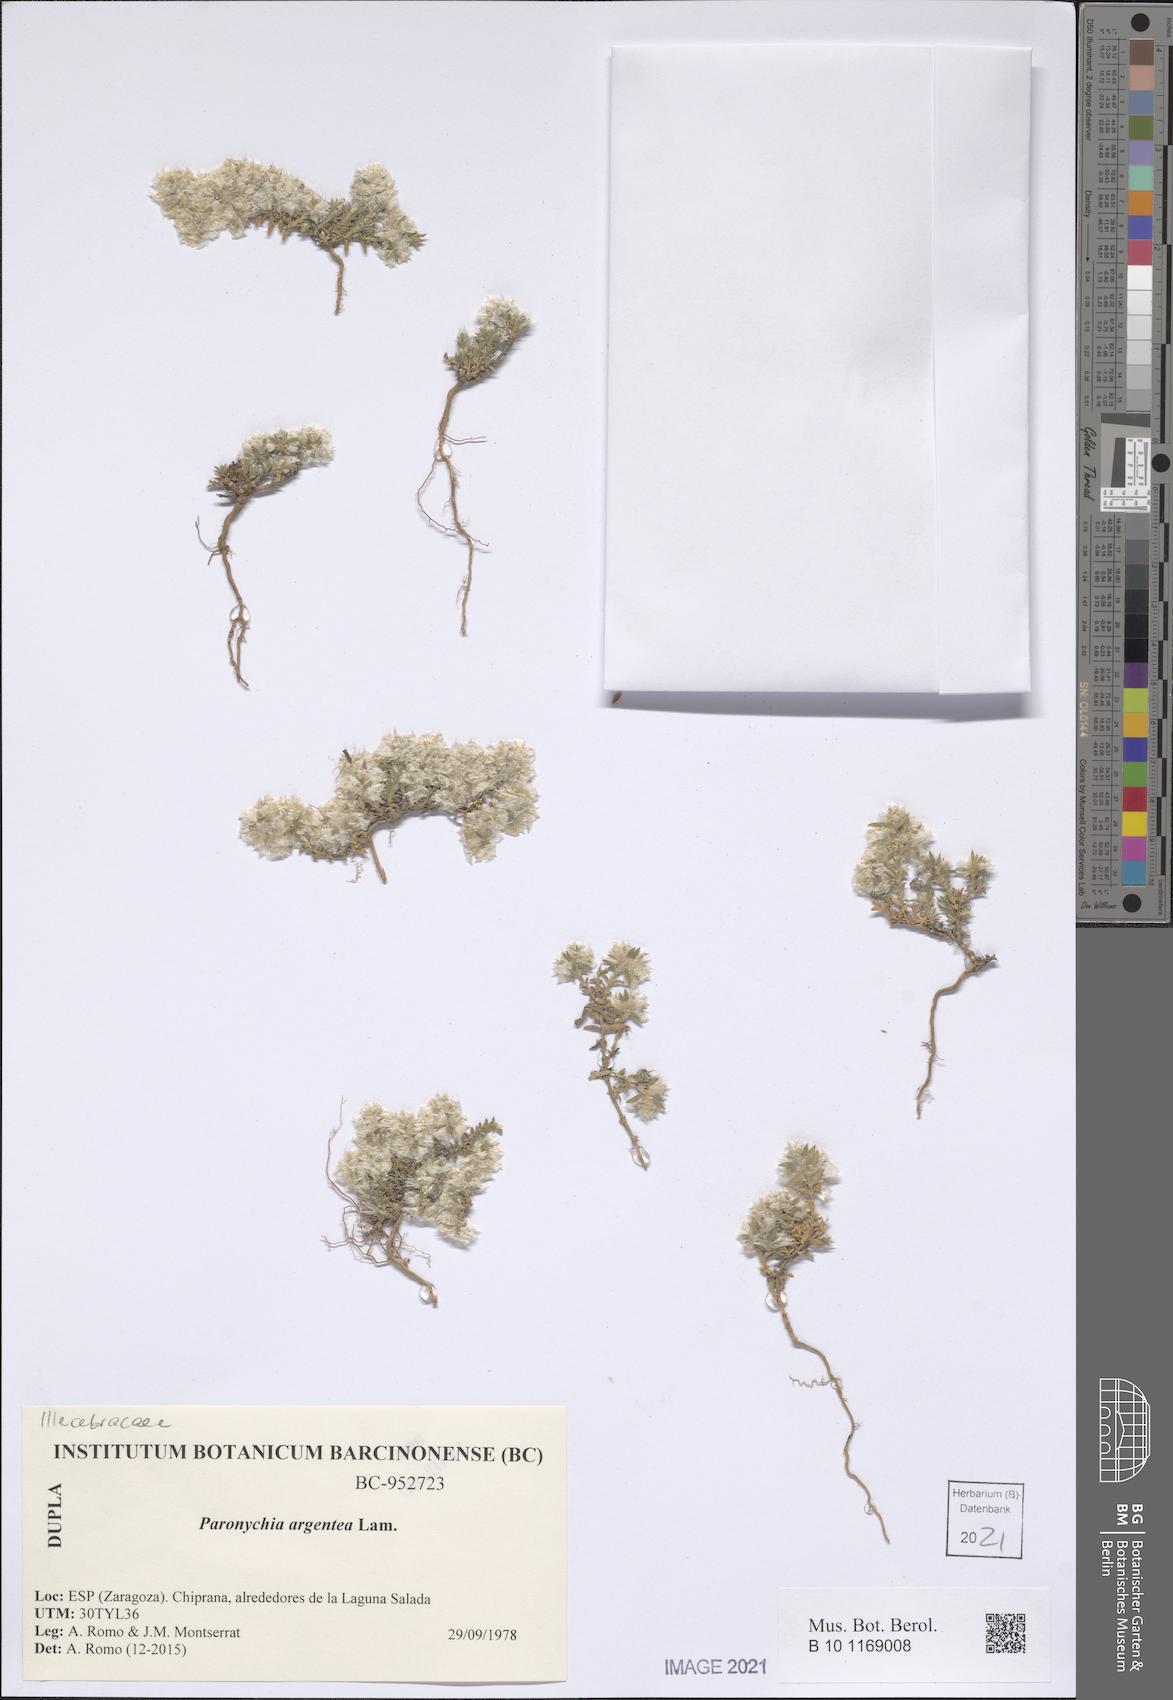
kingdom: Plantae
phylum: Tracheophyta
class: Magnoliopsida
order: Caryophyllales
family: Caryophyllaceae
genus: Paronychia
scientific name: Paronychia argentea
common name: Silver nailroot
